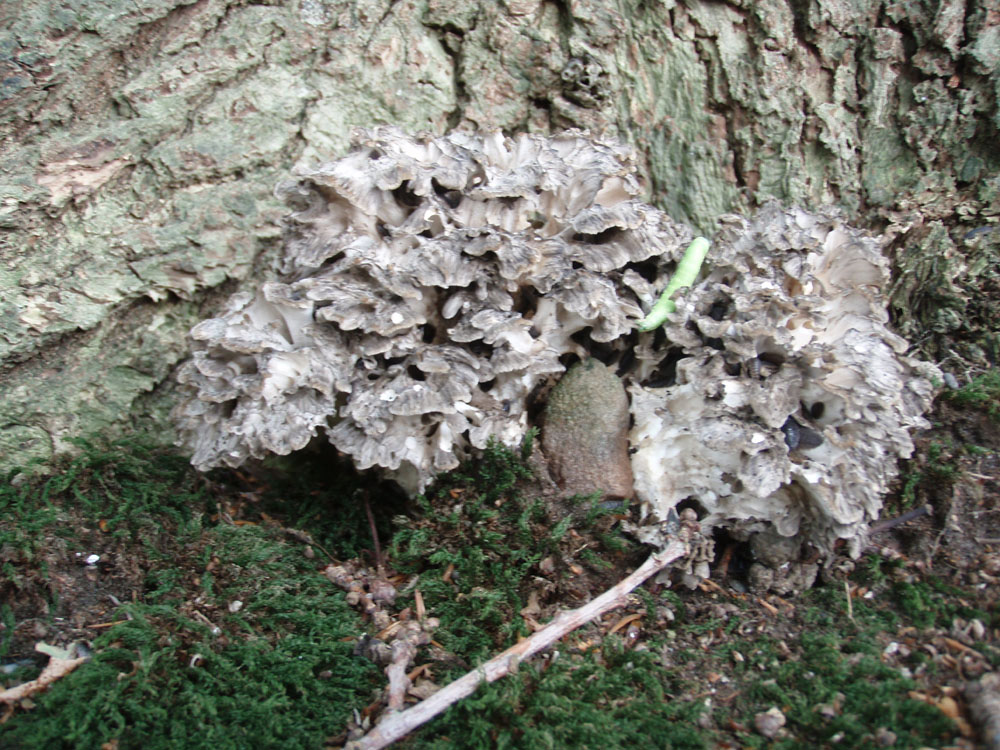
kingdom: Fungi
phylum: Basidiomycota
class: Agaricomycetes
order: Polyporales
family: Grifolaceae
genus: Grifola
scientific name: Grifola frondosa
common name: tueporesvamp
